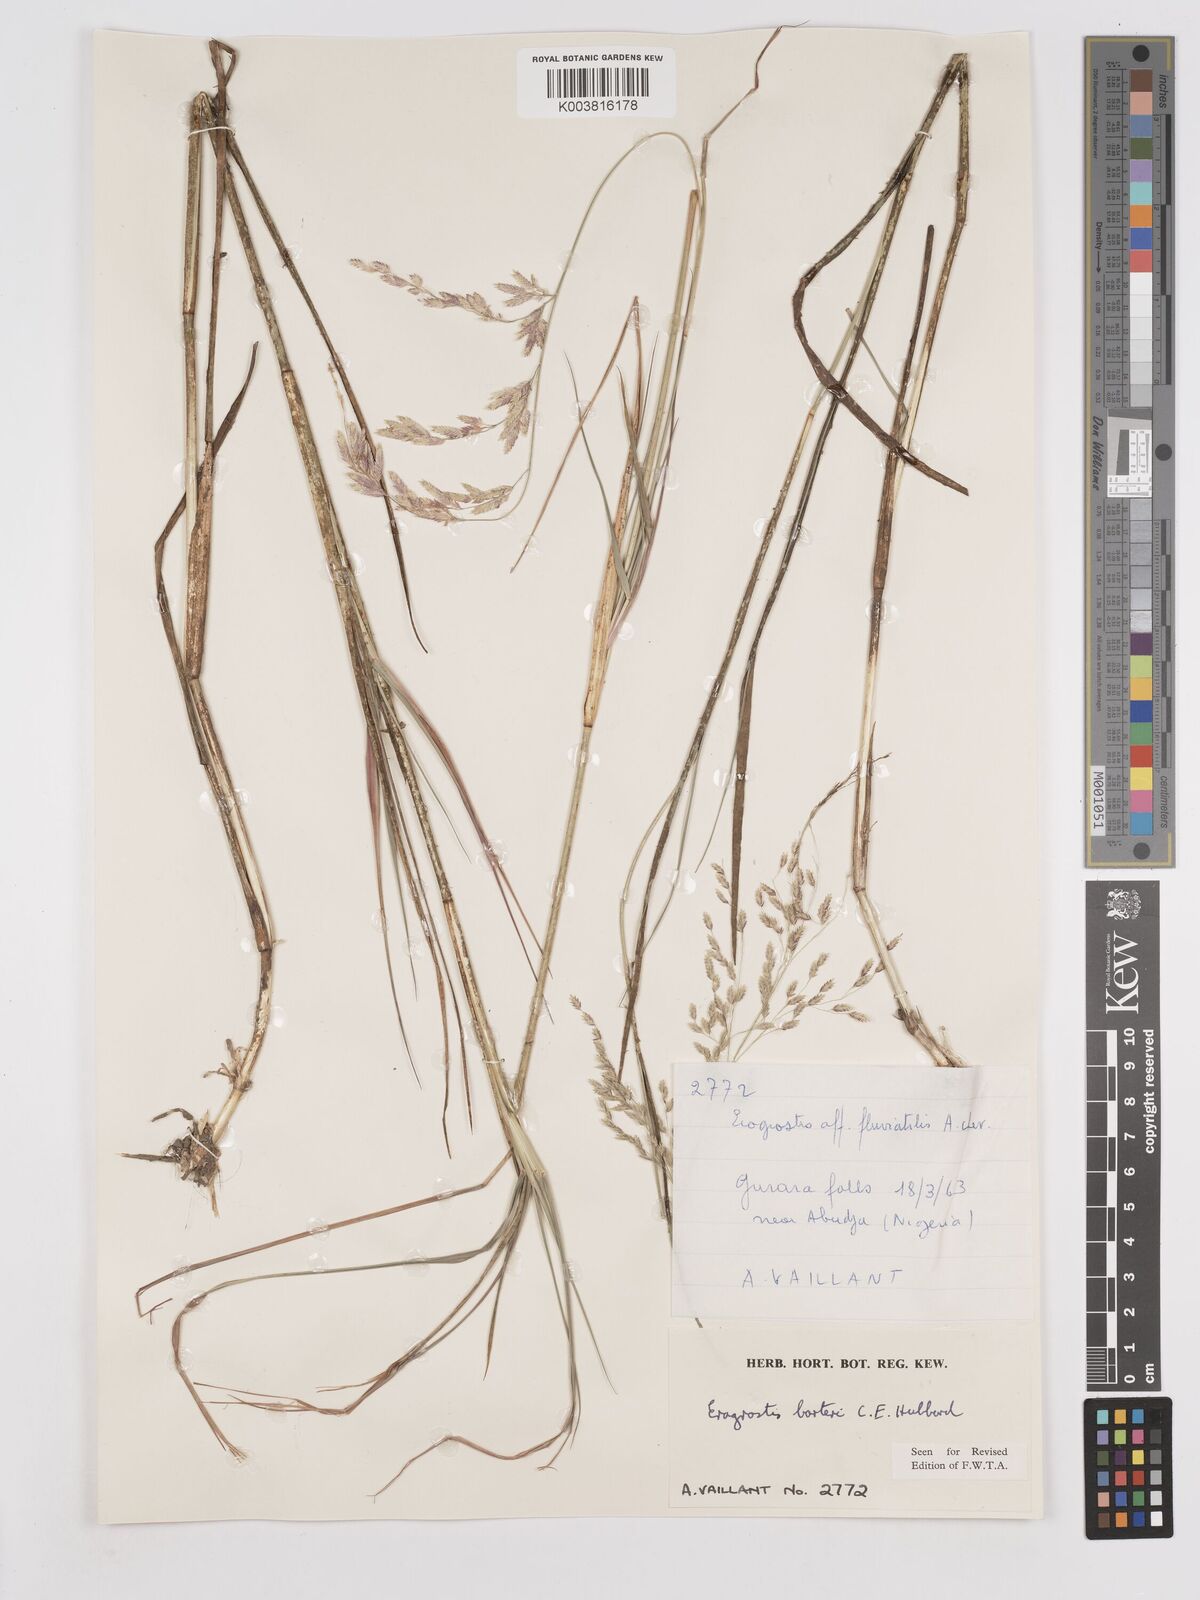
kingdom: Plantae
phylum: Tracheophyta
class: Liliopsida
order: Poales
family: Poaceae
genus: Eragrostis
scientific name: Eragrostis barteri
